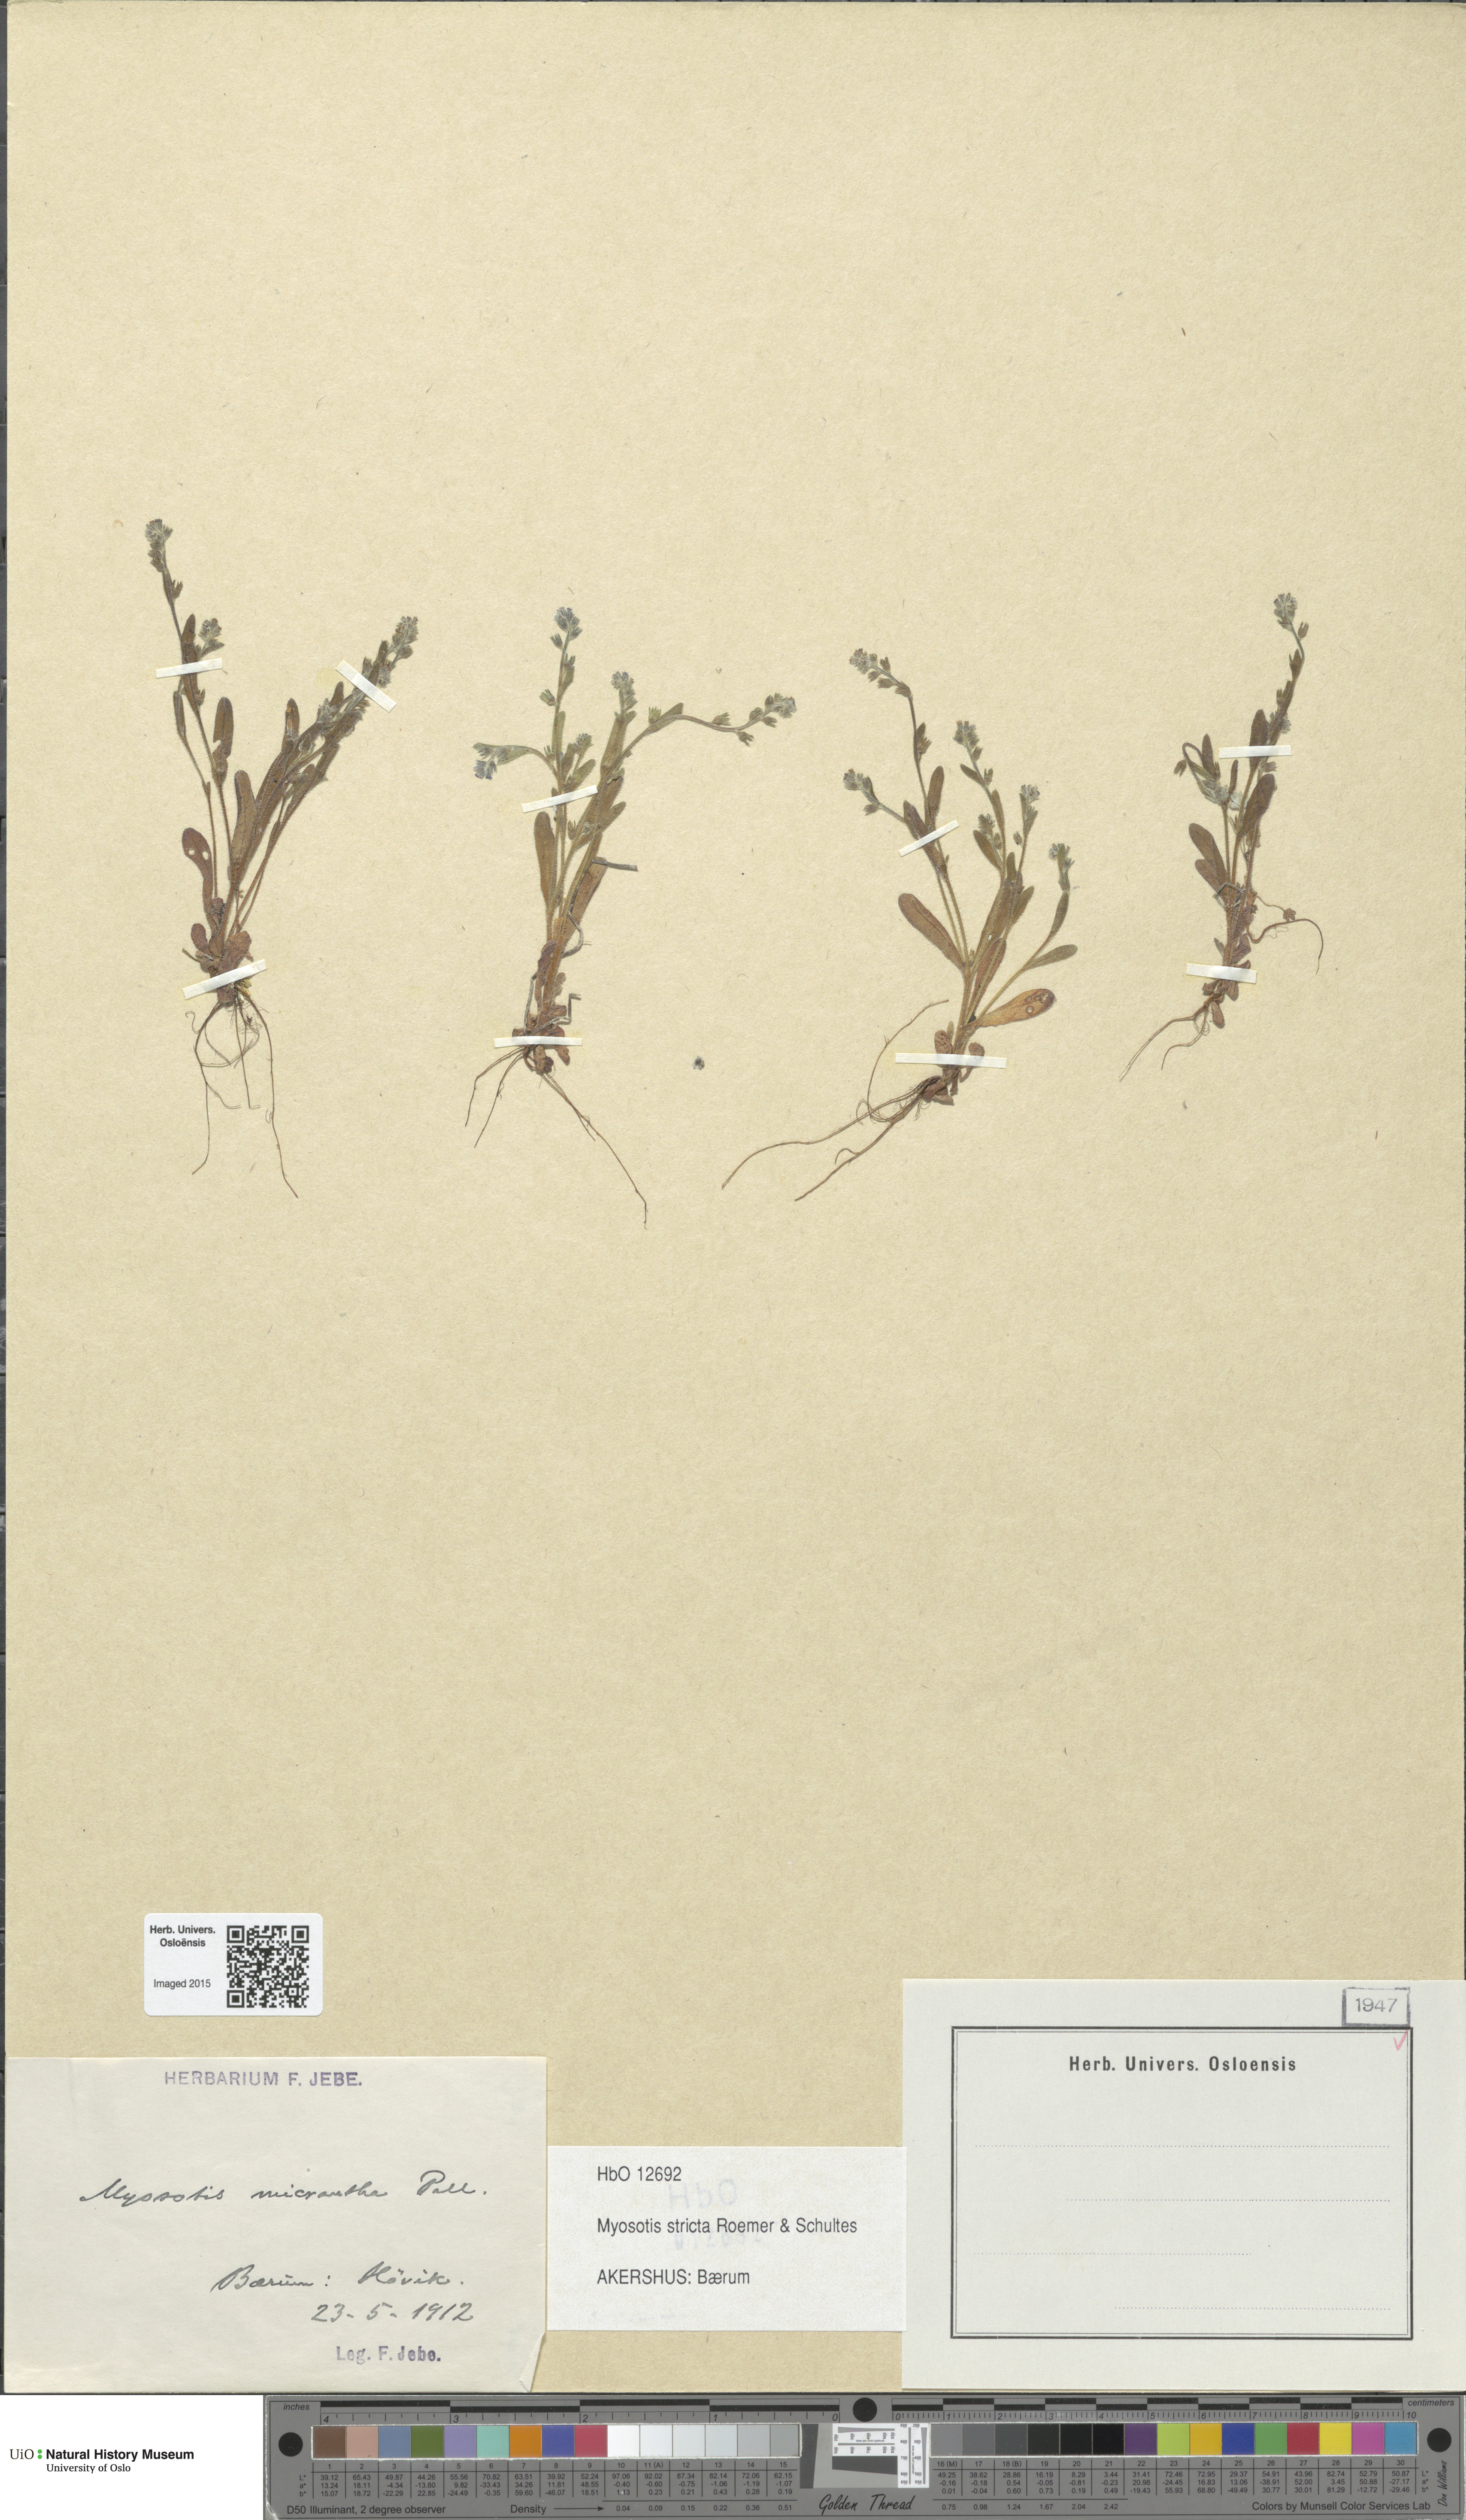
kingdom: Plantae
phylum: Tracheophyta
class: Magnoliopsida
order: Boraginales
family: Boraginaceae
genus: Myosotis
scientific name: Myosotis stricta
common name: Strict forget-me-not
